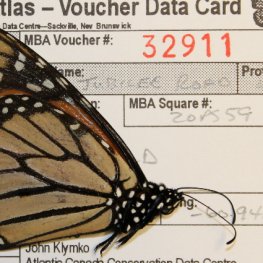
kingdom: Animalia
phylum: Arthropoda
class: Insecta
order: Lepidoptera
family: Nymphalidae
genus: Danaus
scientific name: Danaus plexippus
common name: Monarch
